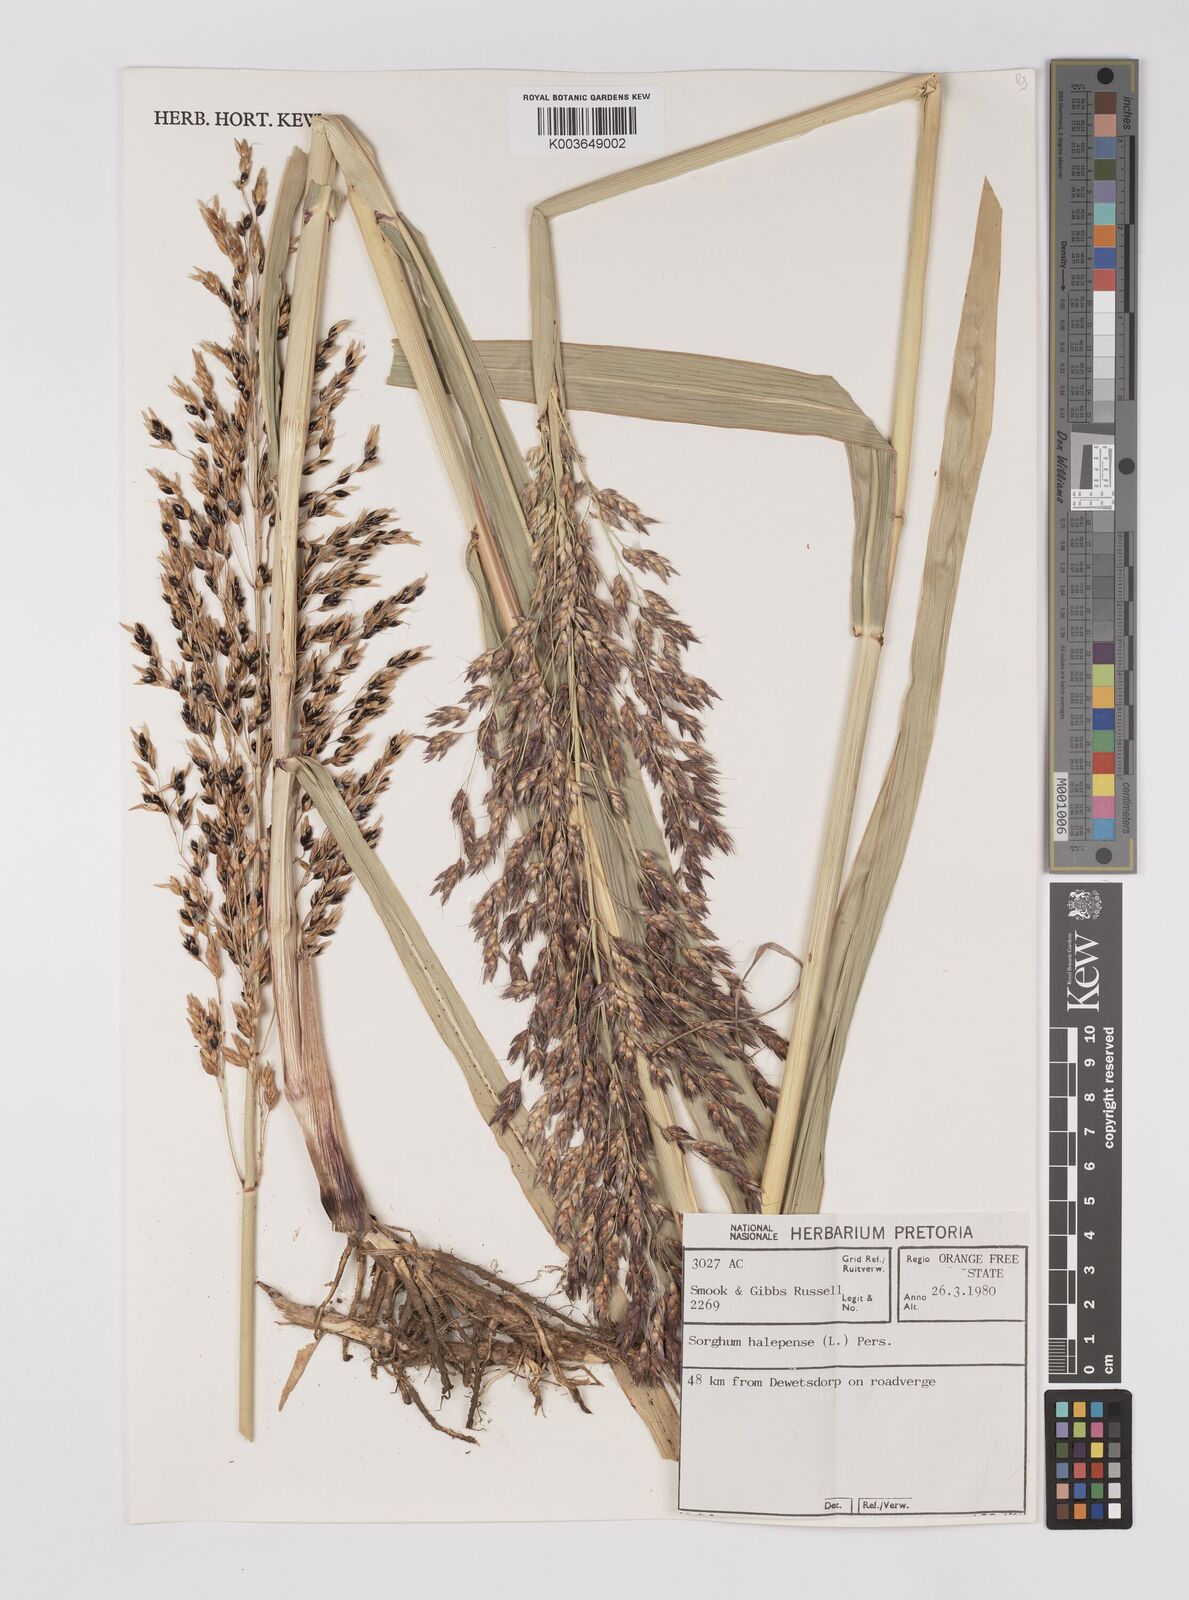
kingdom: Plantae
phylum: Tracheophyta
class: Liliopsida
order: Poales
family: Poaceae
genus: Sorghum
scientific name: Sorghum halepense
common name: Johnson-grass
